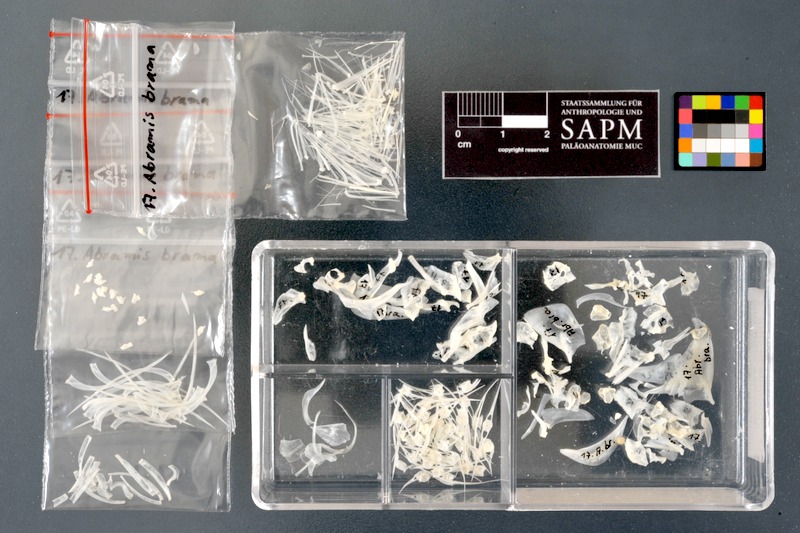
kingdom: Animalia
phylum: Chordata
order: Cypriniformes
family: Cyprinidae
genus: Abramis
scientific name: Abramis brama
